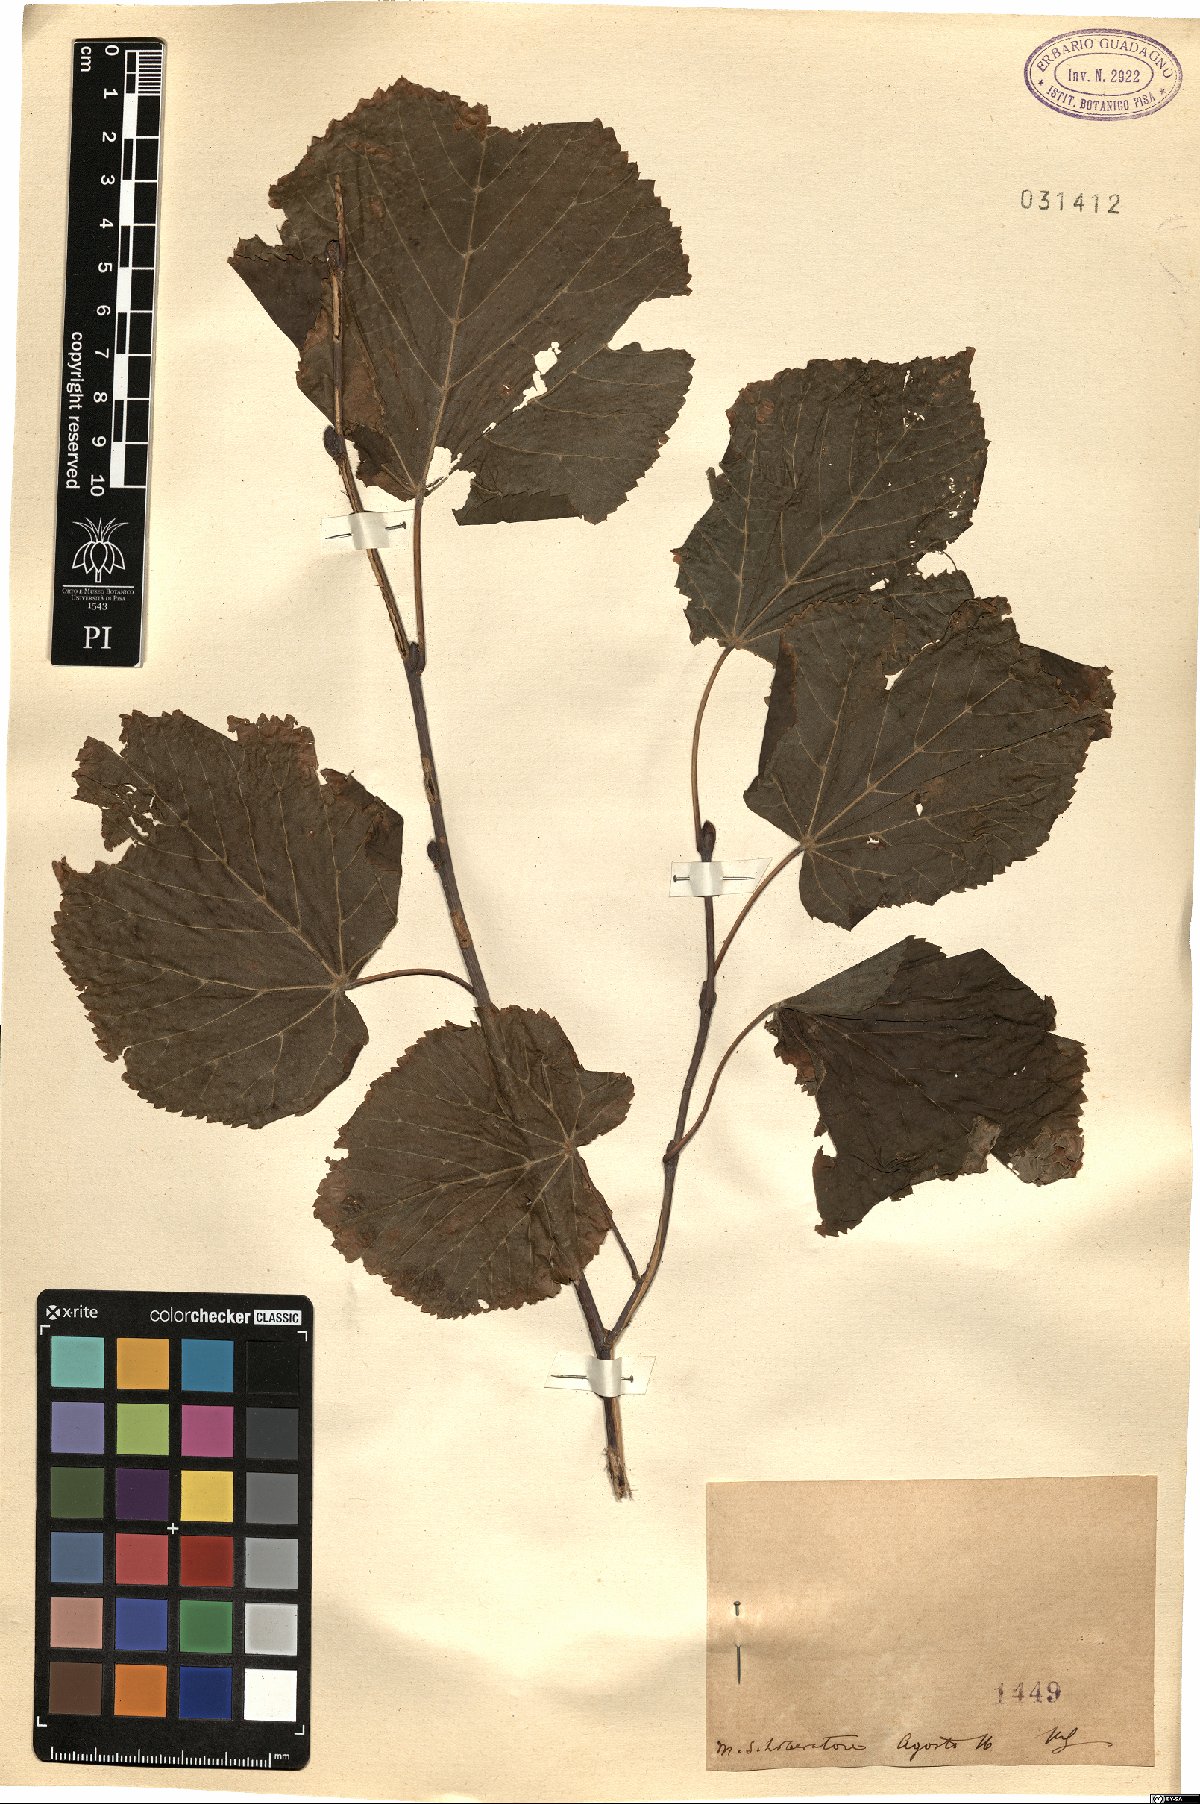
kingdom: Plantae
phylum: Tracheophyta
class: Magnoliopsida
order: Fagales
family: Betulaceae
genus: Corylus
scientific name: Corylus
